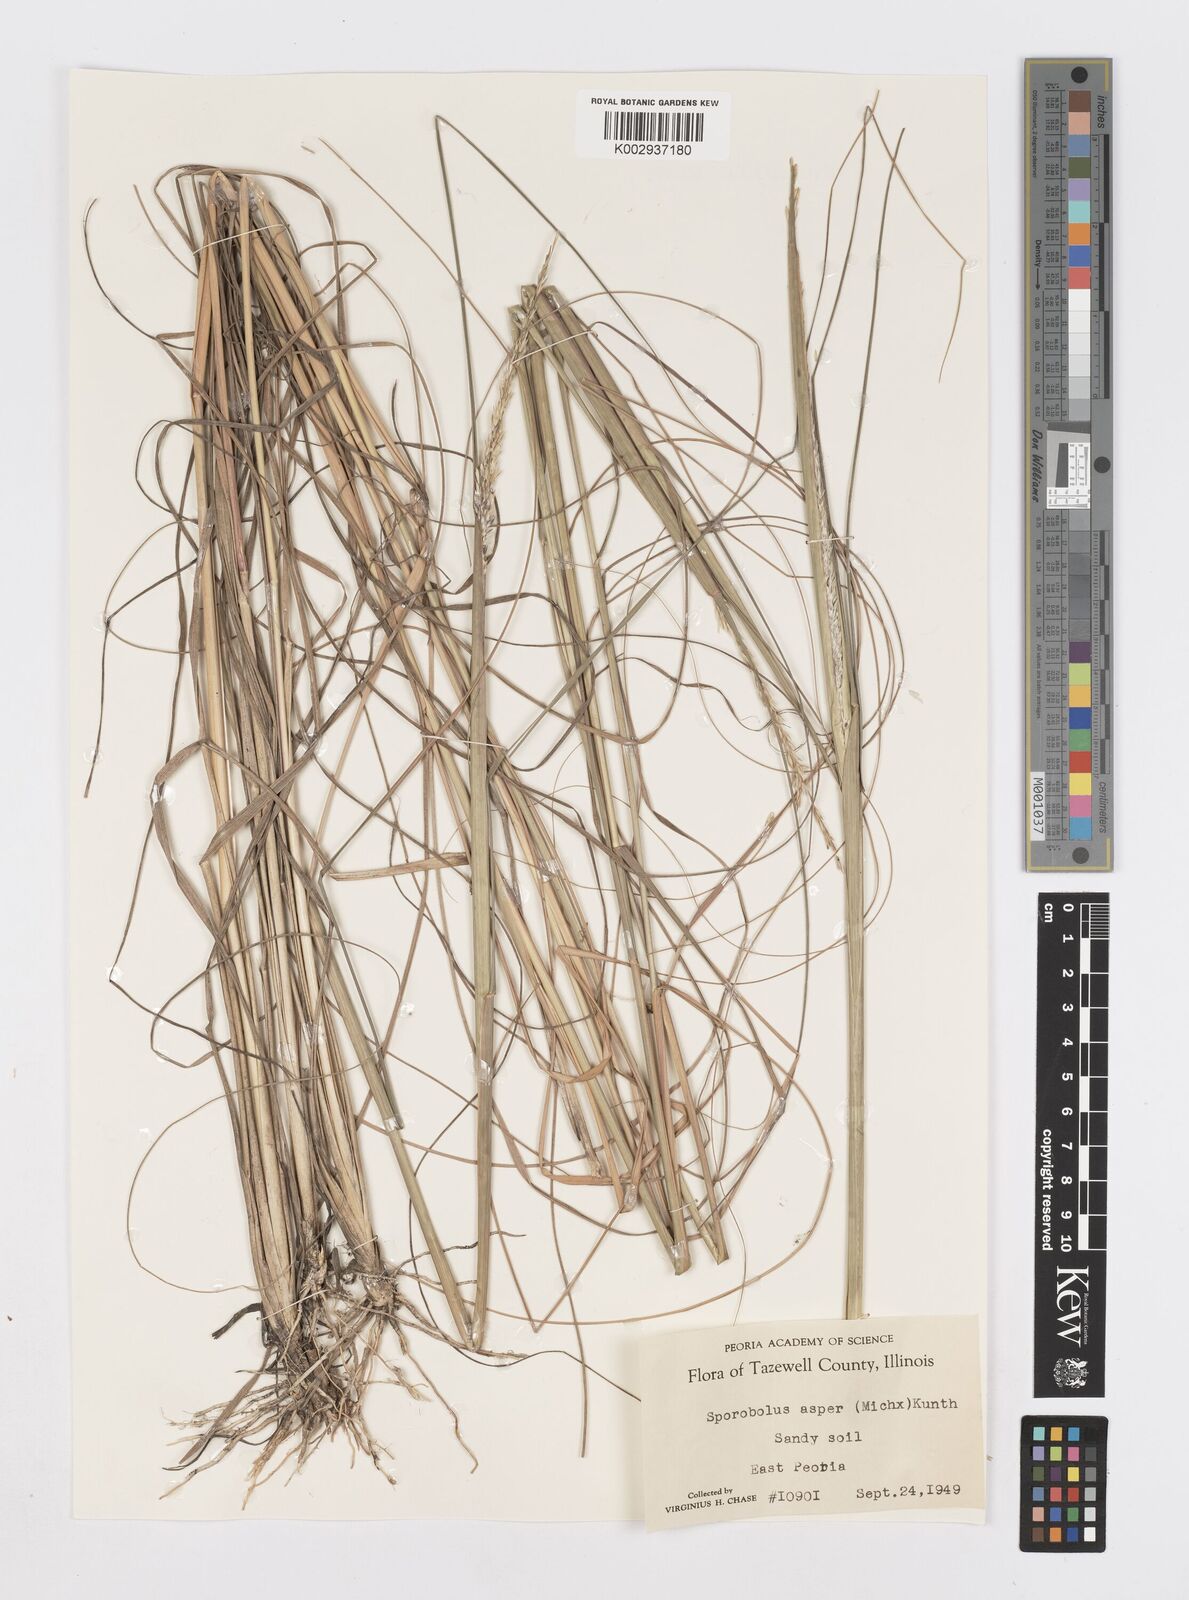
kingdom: Plantae
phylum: Tracheophyta
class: Liliopsida
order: Poales
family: Poaceae
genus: Sporobolus
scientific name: Sporobolus compositus
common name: Rough dropseed
